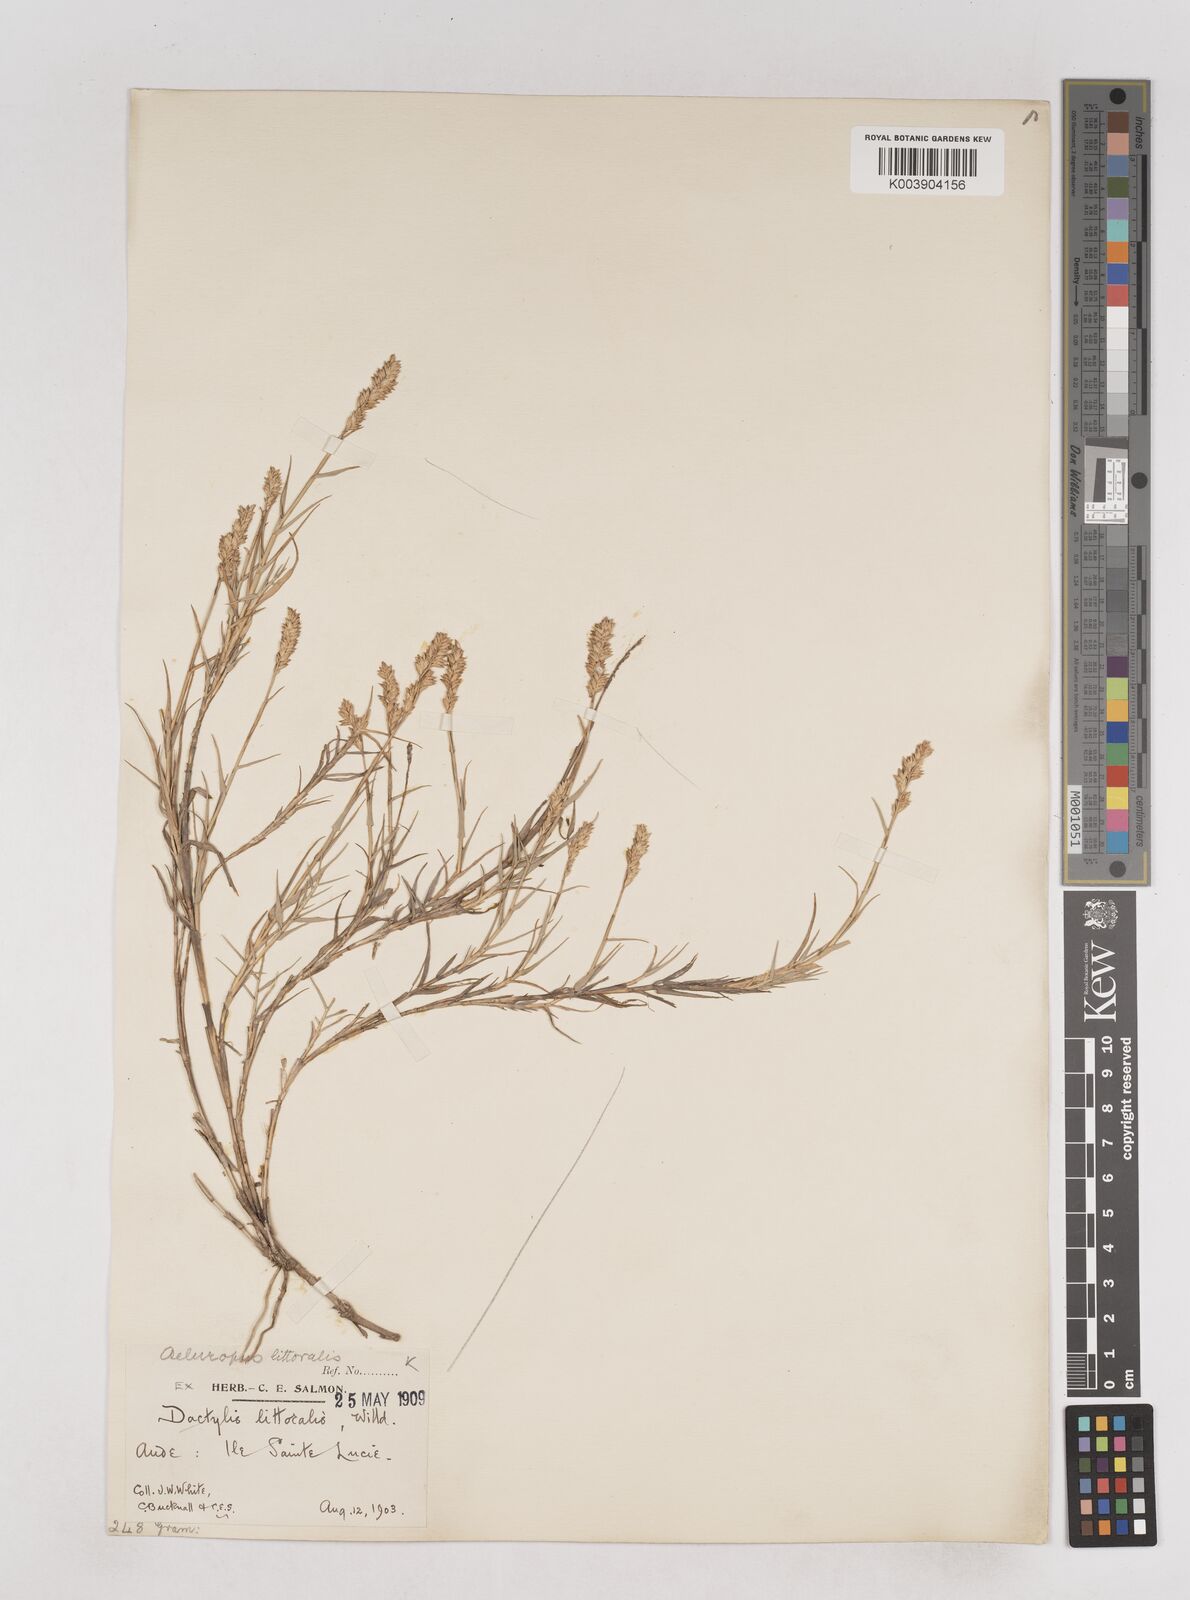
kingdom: Plantae
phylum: Tracheophyta
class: Liliopsida
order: Poales
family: Poaceae
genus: Aeluropus
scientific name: Aeluropus littoralis
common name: Indian walnut
